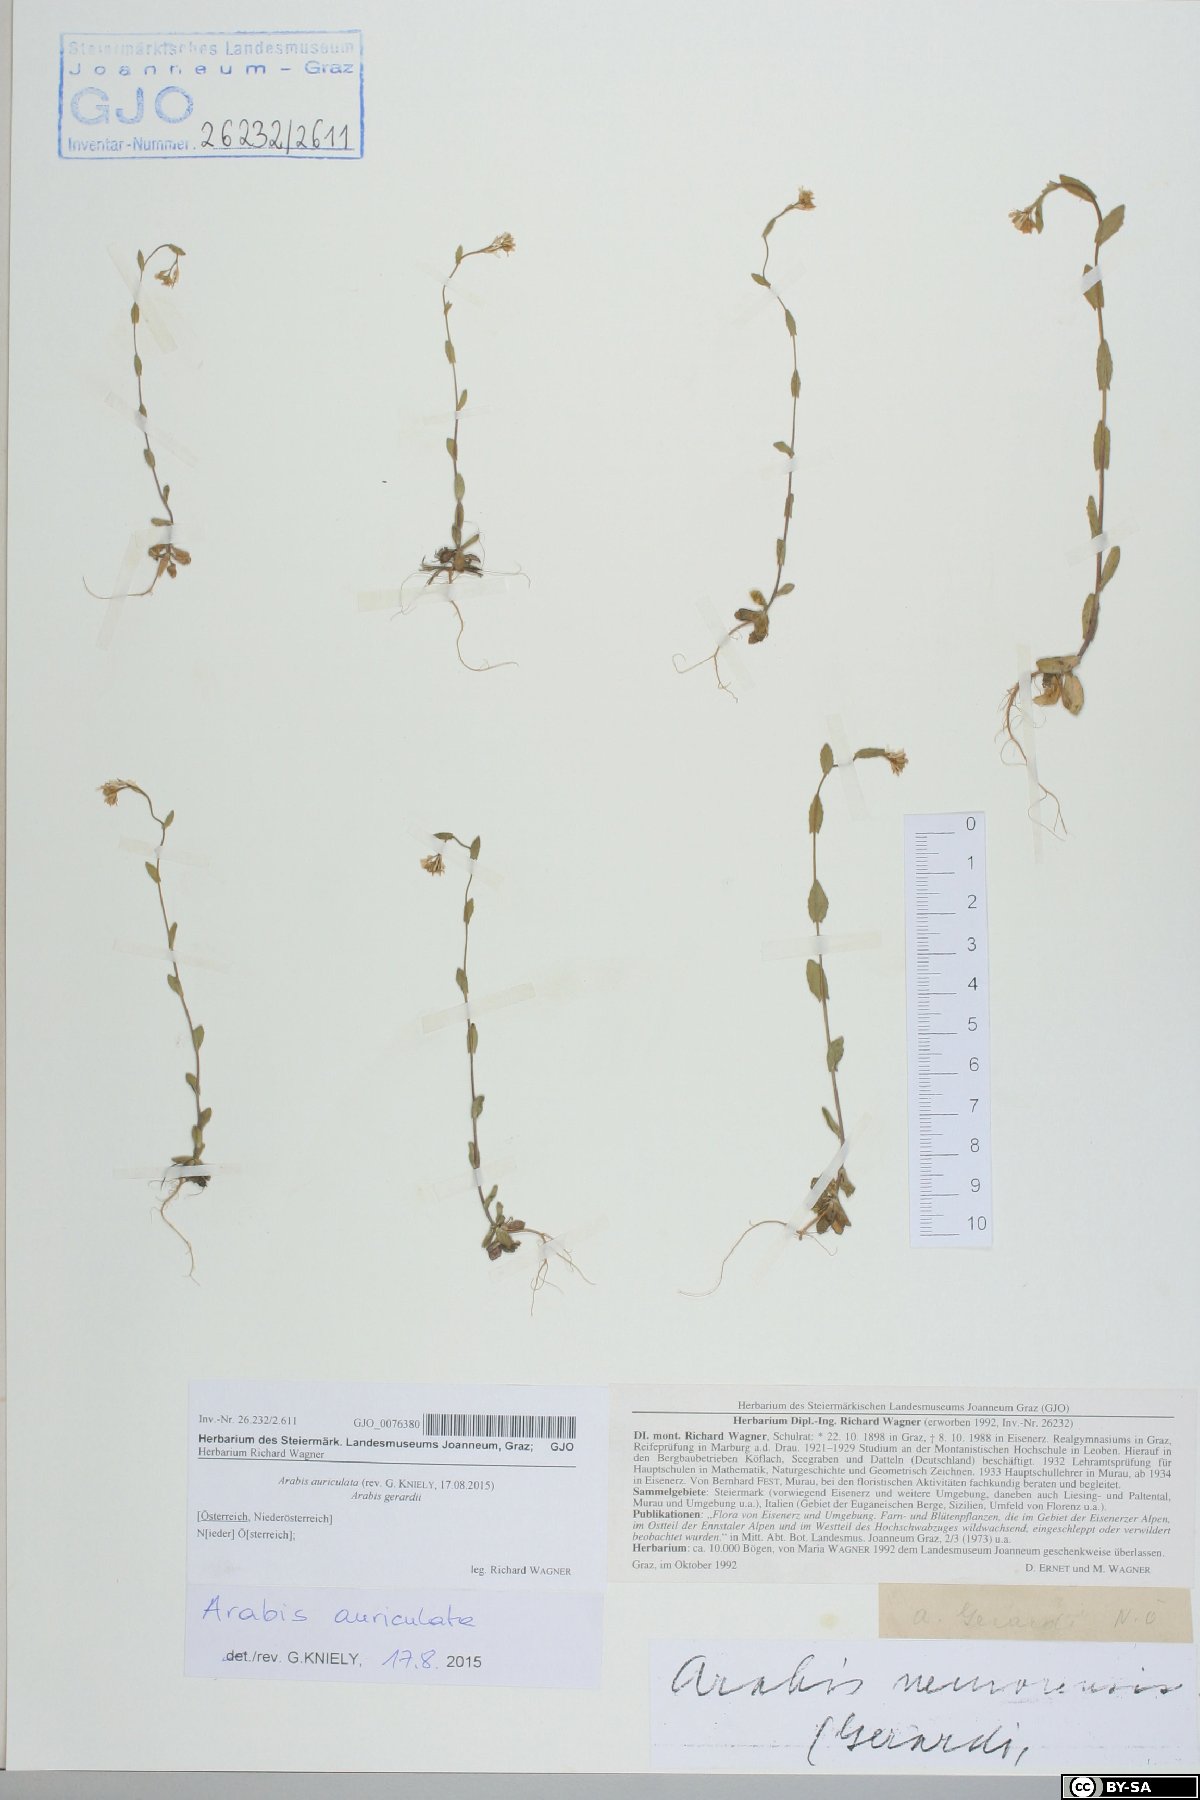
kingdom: Plantae
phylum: Tracheophyta
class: Magnoliopsida
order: Brassicales
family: Brassicaceae
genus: Arabis
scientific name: Arabis auriculata
